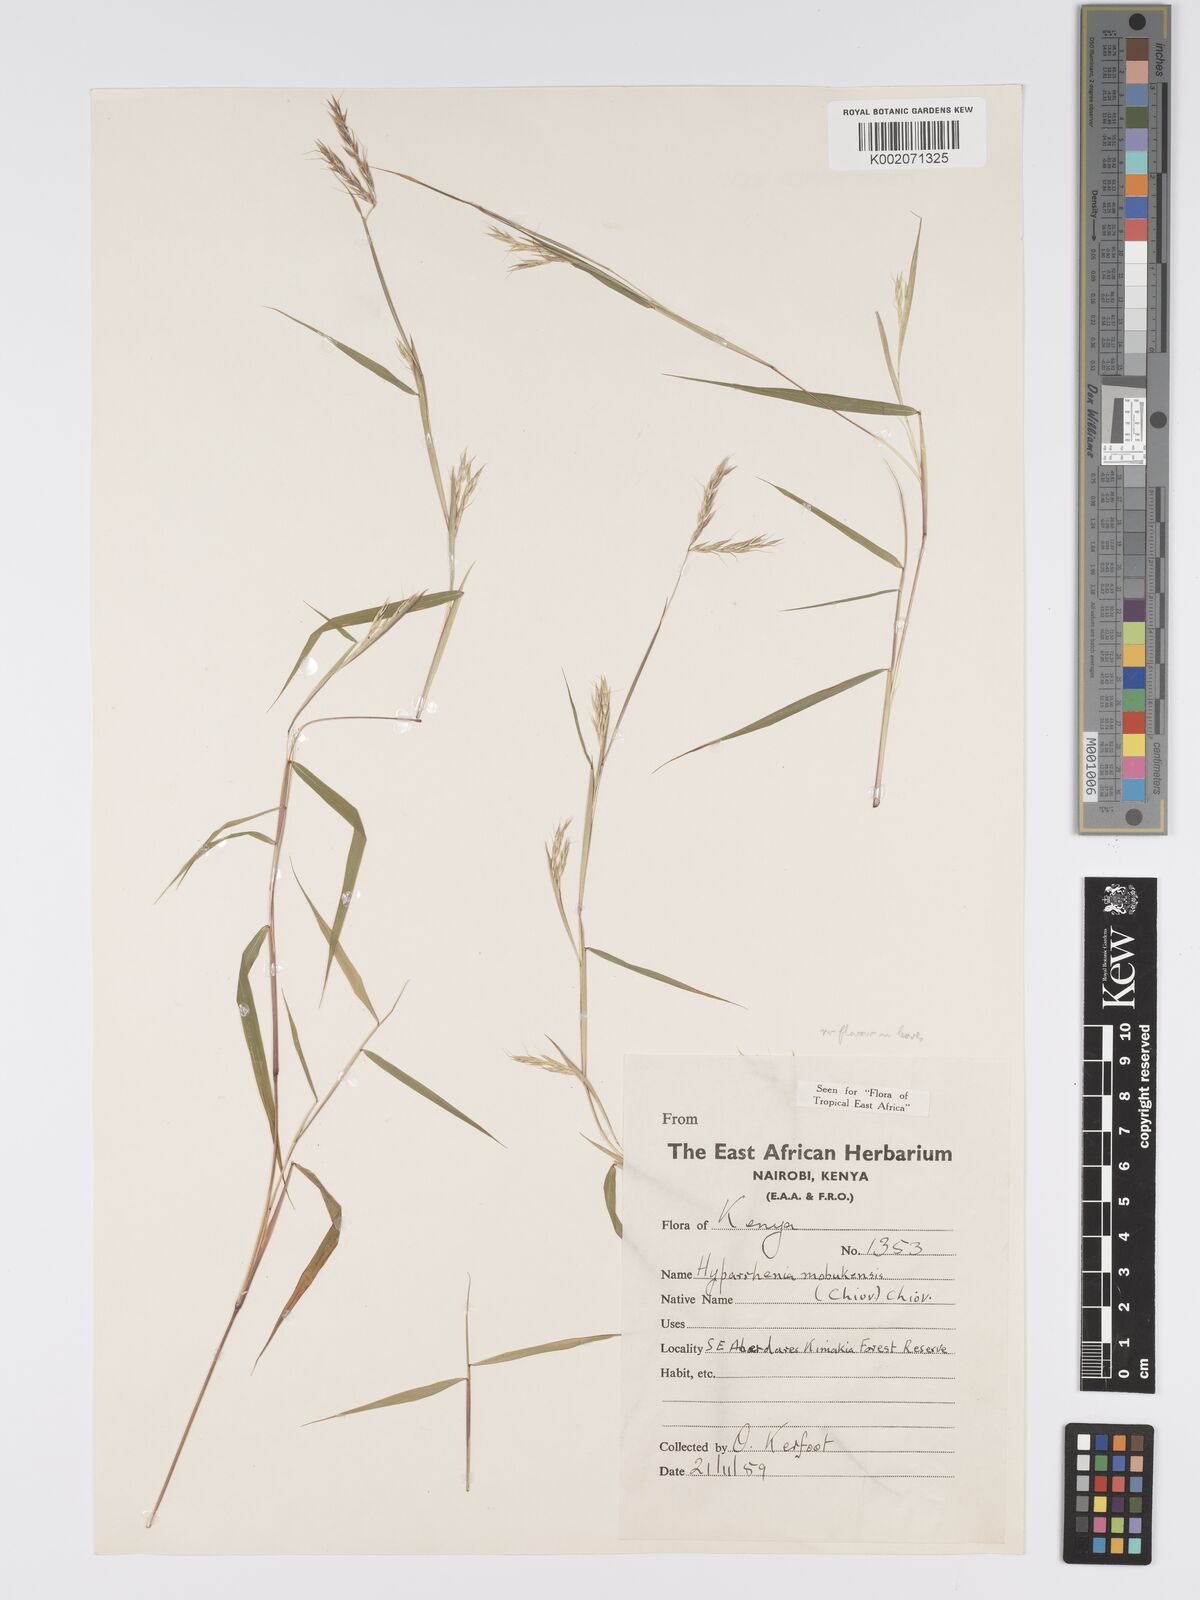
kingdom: Plantae
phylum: Tracheophyta
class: Liliopsida
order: Poales
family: Poaceae
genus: Hyparrhenia
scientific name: Hyparrhenia mobukensis
